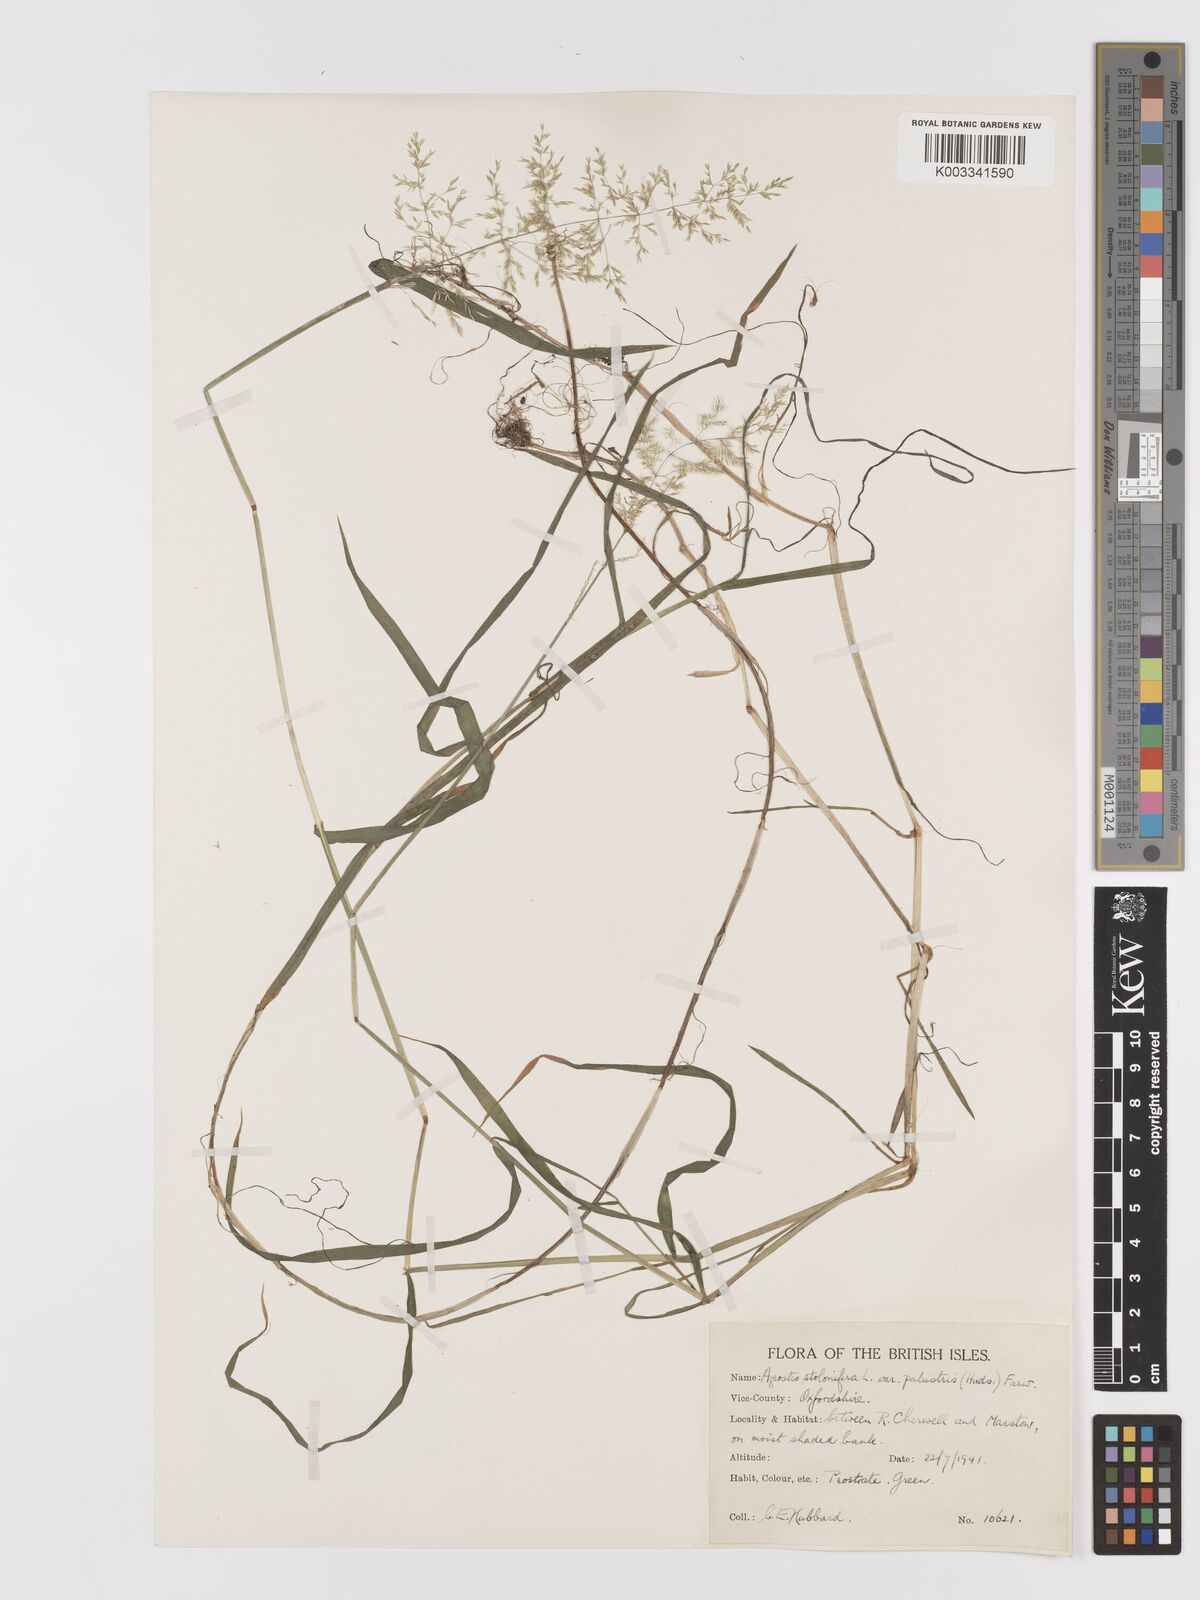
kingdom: Plantae
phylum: Tracheophyta
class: Liliopsida
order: Poales
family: Poaceae
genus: Agrostis
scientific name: Agrostis stolonifera
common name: Creeping bentgrass
